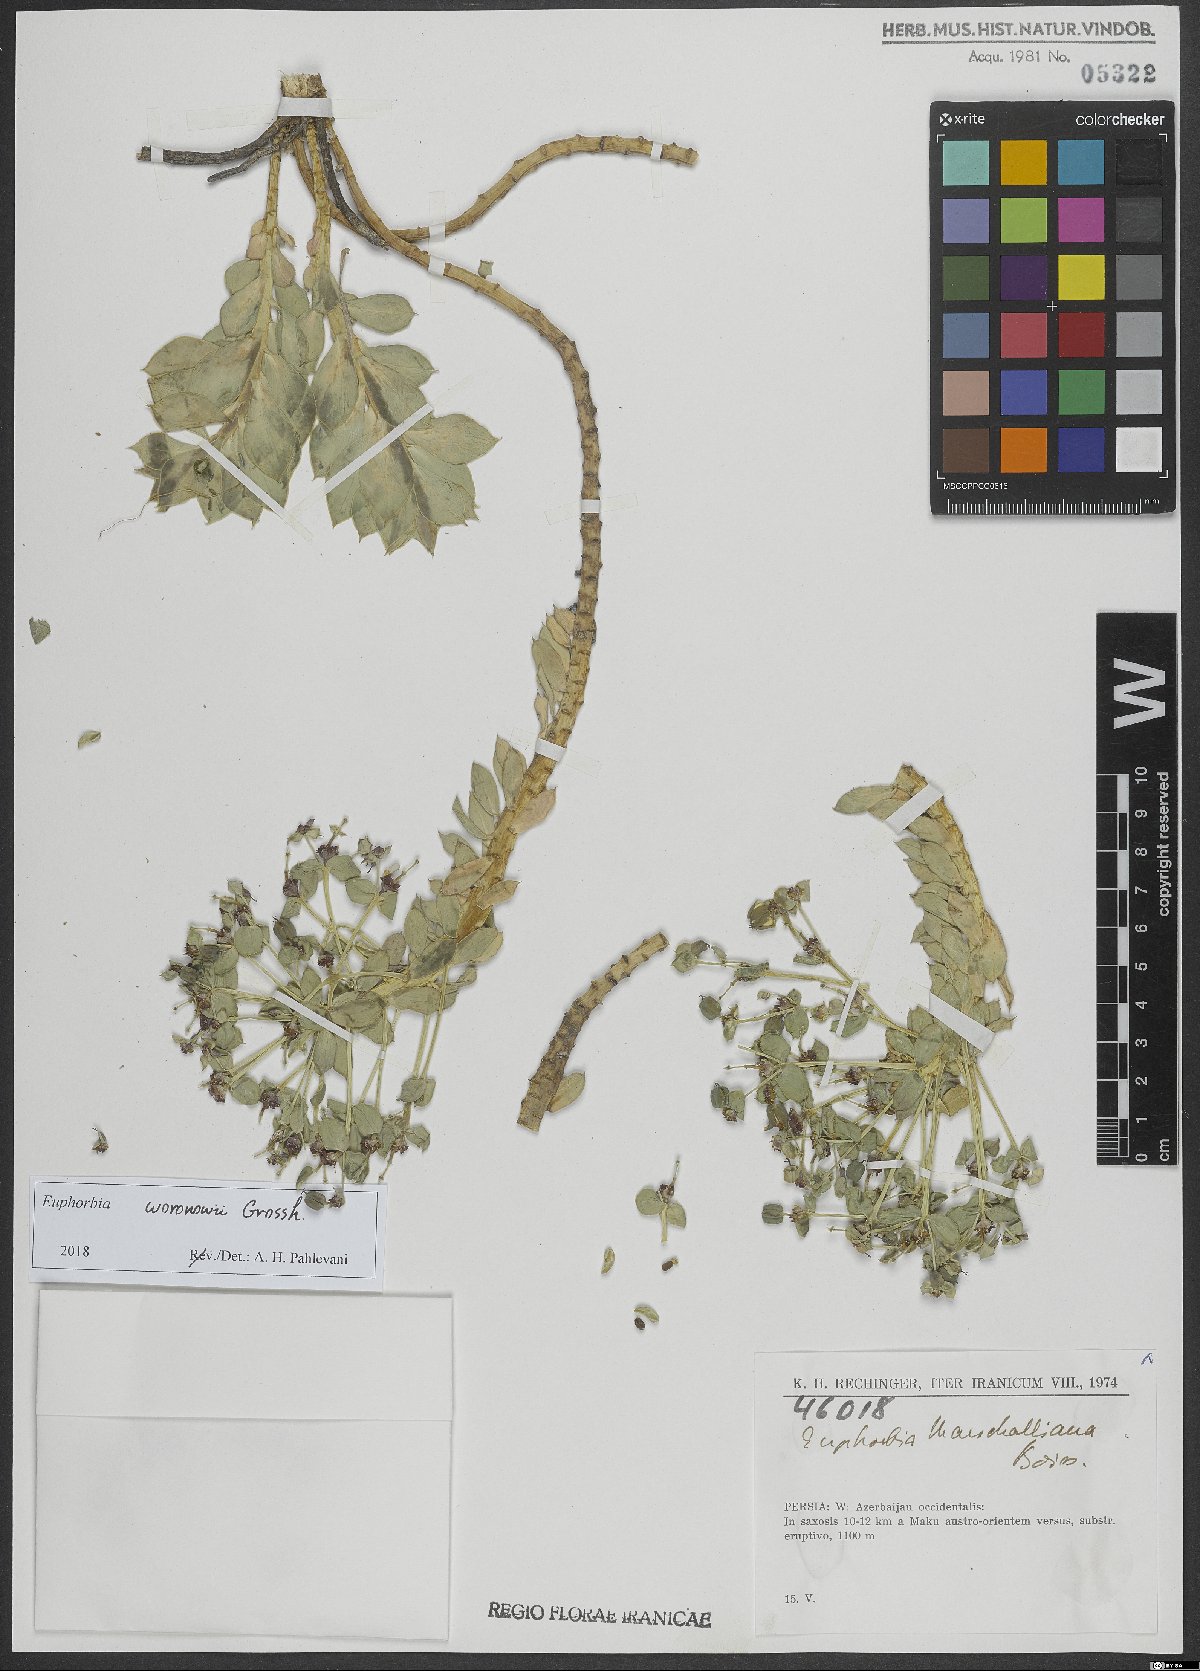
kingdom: Plantae
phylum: Tracheophyta
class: Magnoliopsida
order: Malpighiales
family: Euphorbiaceae
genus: Euphorbia
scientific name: Euphorbia marschalliana
